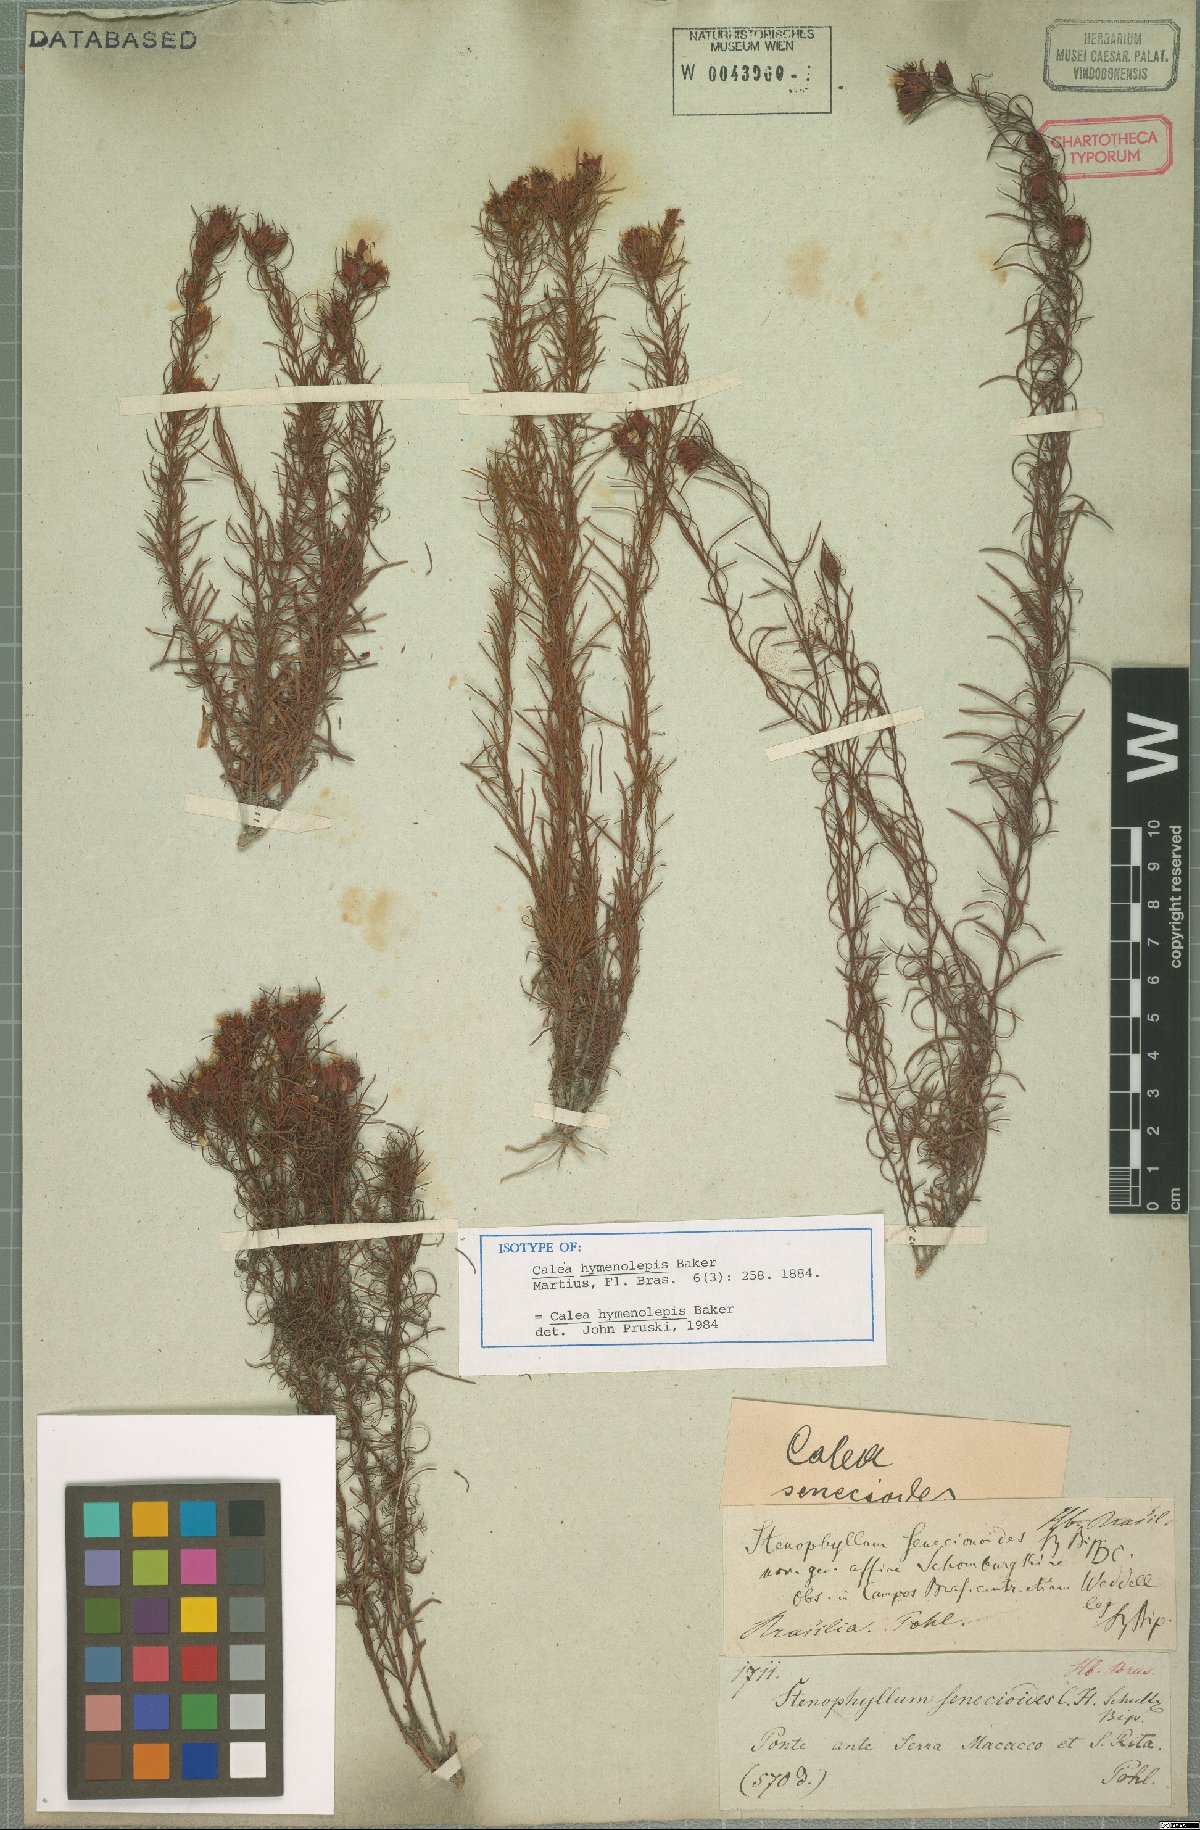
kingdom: Plantae
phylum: Tracheophyta
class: Magnoliopsida
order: Asterales
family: Asteraceae
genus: Calea
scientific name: Calea hymenolepis
